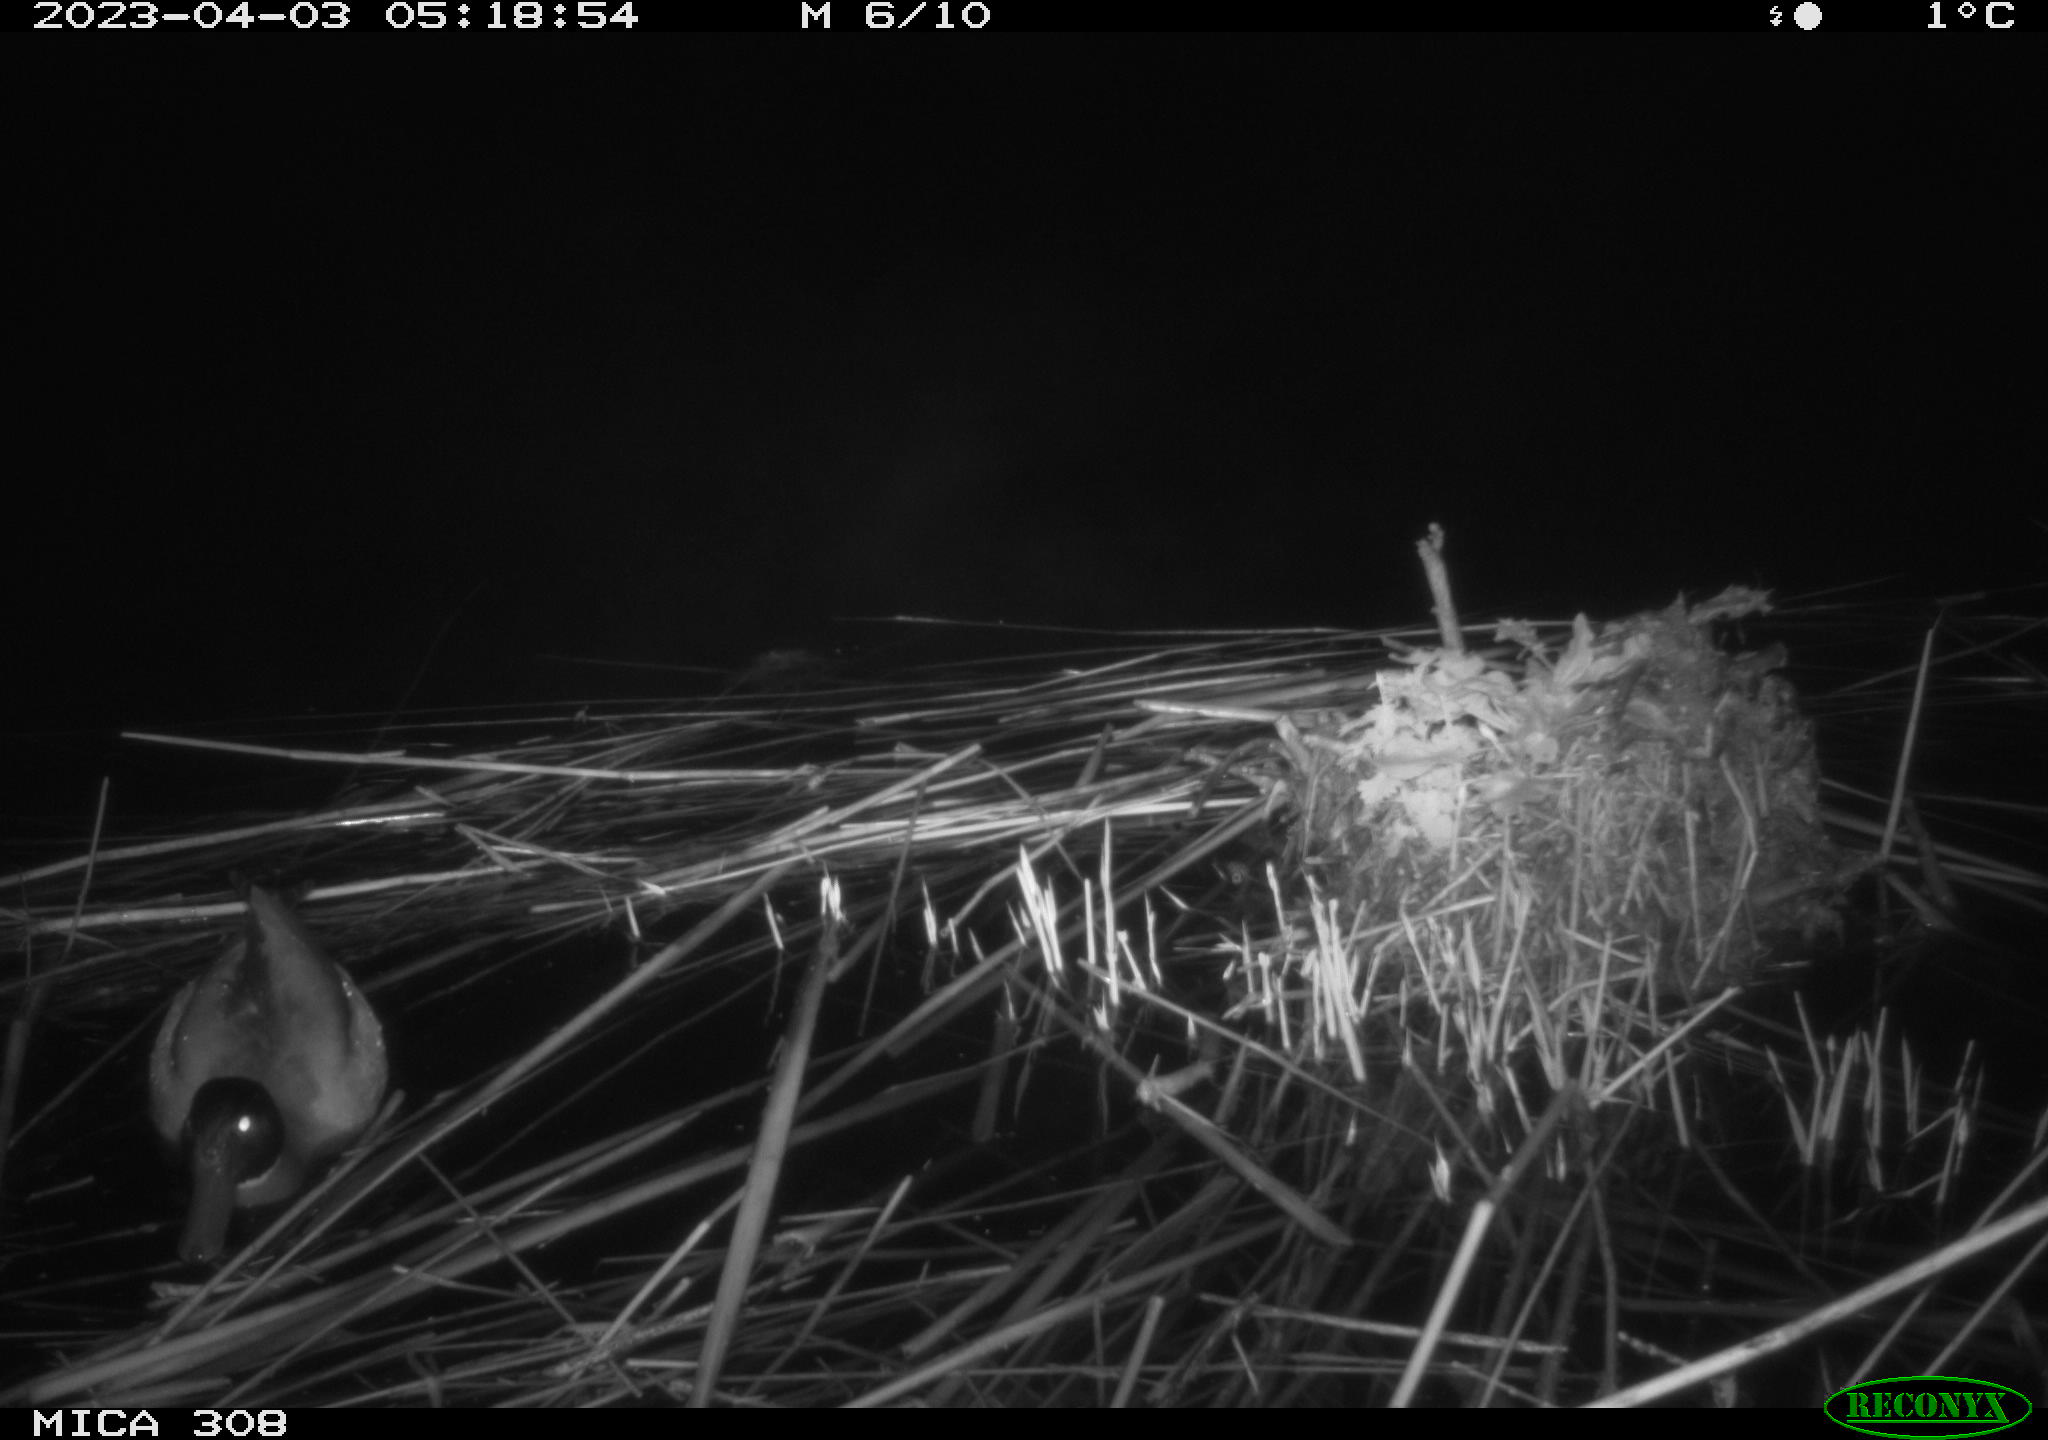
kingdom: Animalia
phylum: Chordata
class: Aves
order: Anseriformes
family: Anatidae
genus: Anas
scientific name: Anas
